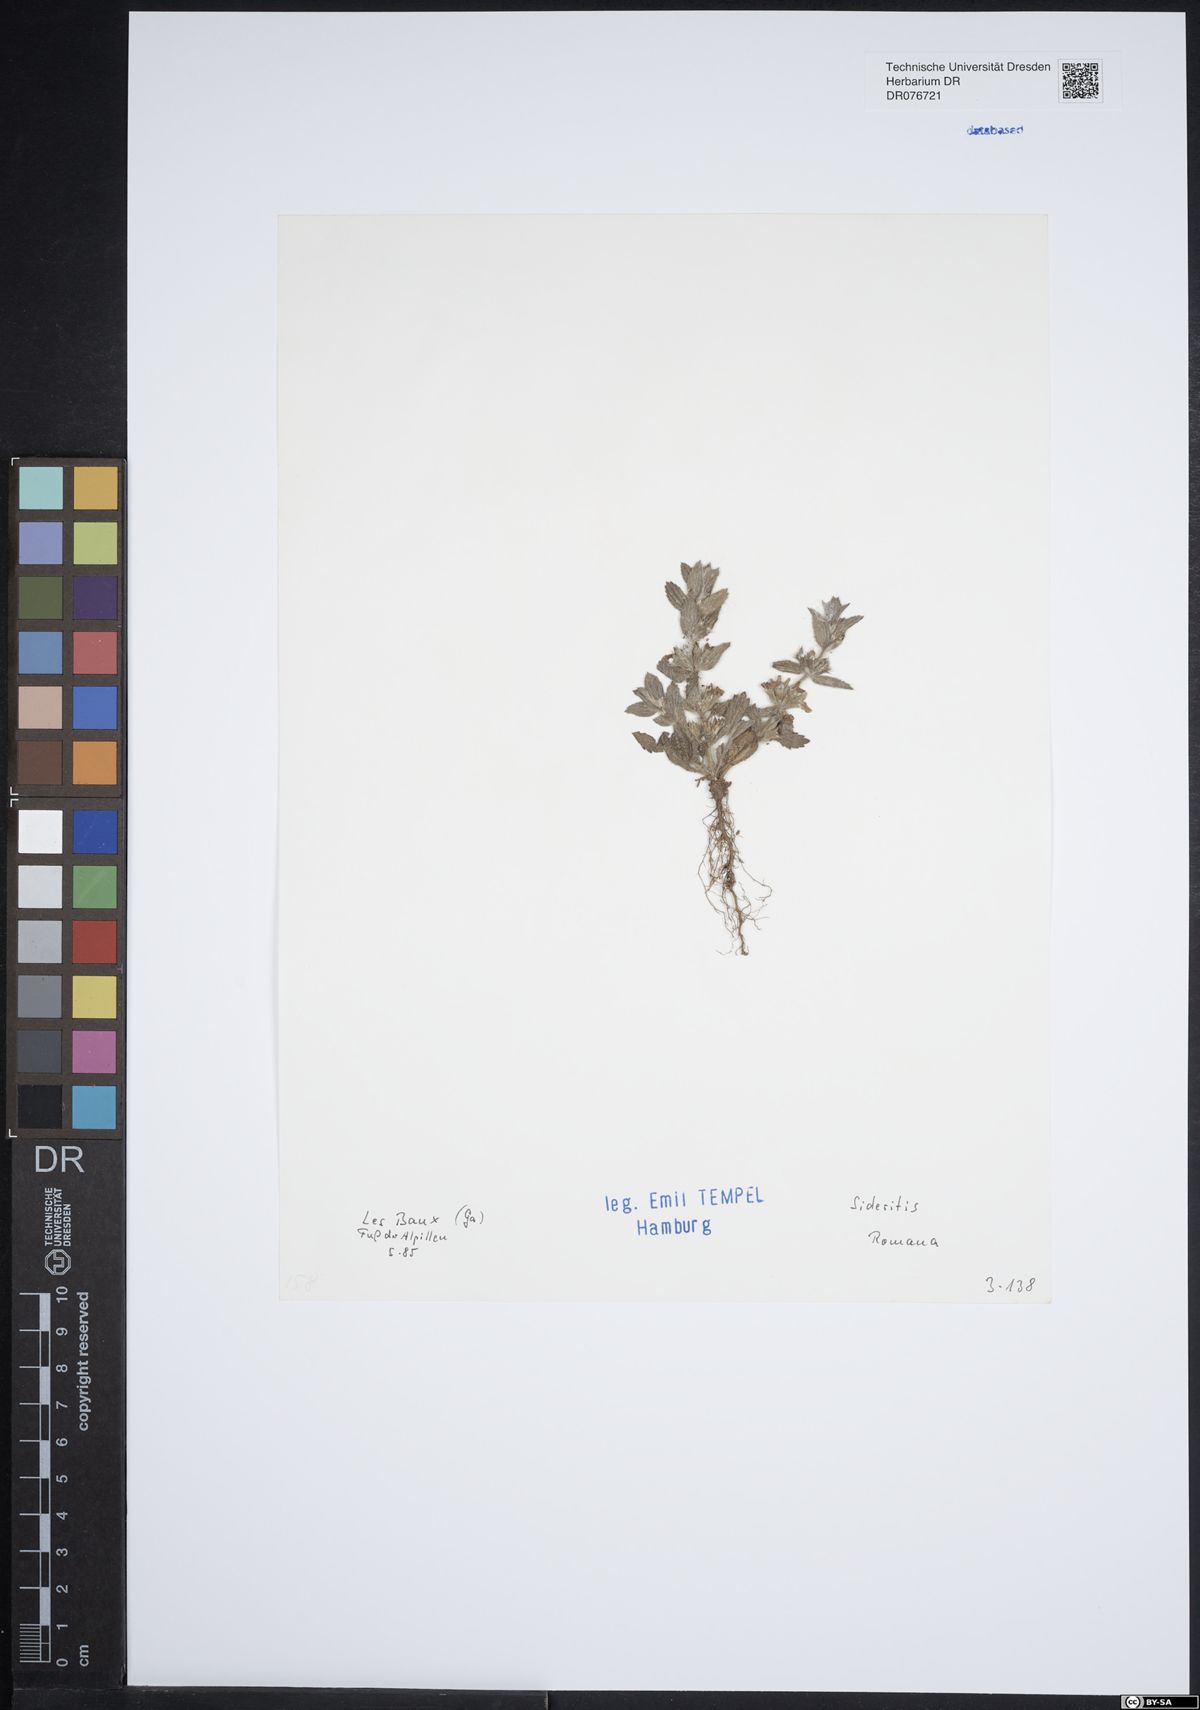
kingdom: Plantae
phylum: Tracheophyta
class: Magnoliopsida
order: Lamiales
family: Lamiaceae
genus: Sideritis
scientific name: Sideritis romana
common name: Simplebeak ironwort
